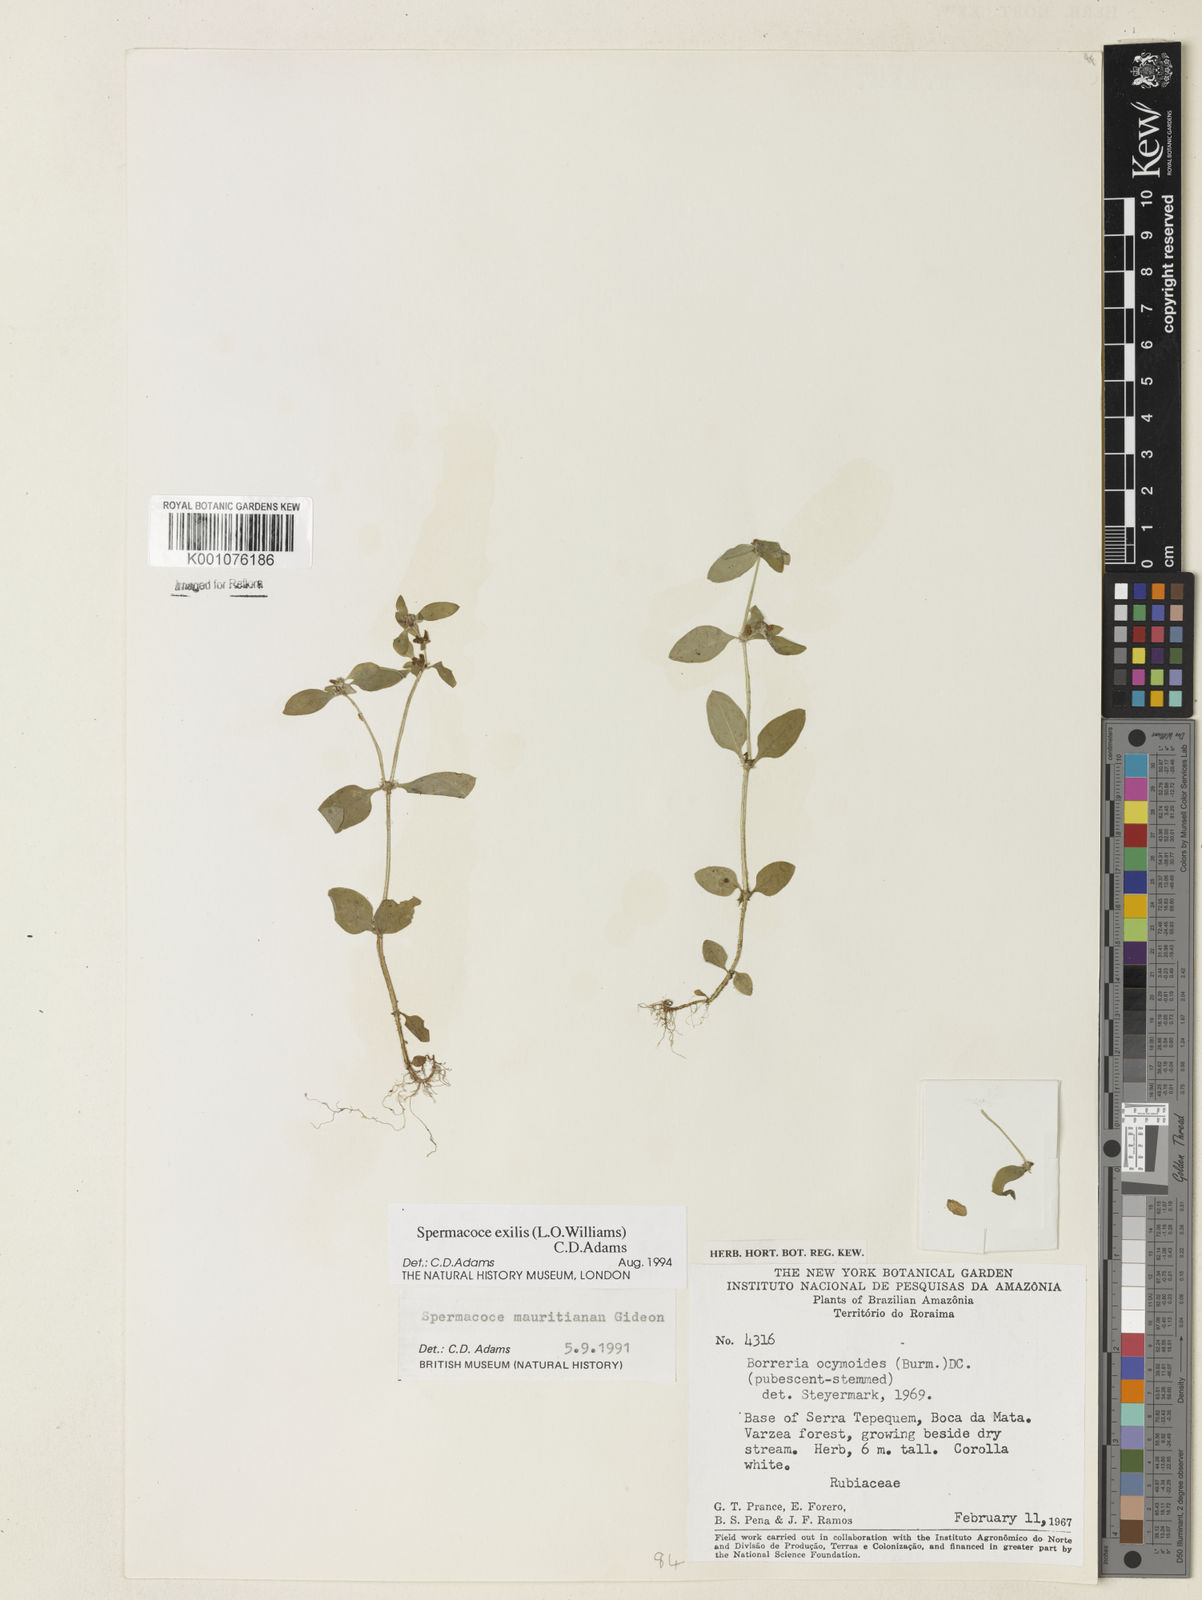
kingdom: Plantae
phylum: Tracheophyta
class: Magnoliopsida
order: Gentianales
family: Rubiaceae
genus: Spermacoce
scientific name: Spermacoce exilis
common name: Pacific false buttonweed
